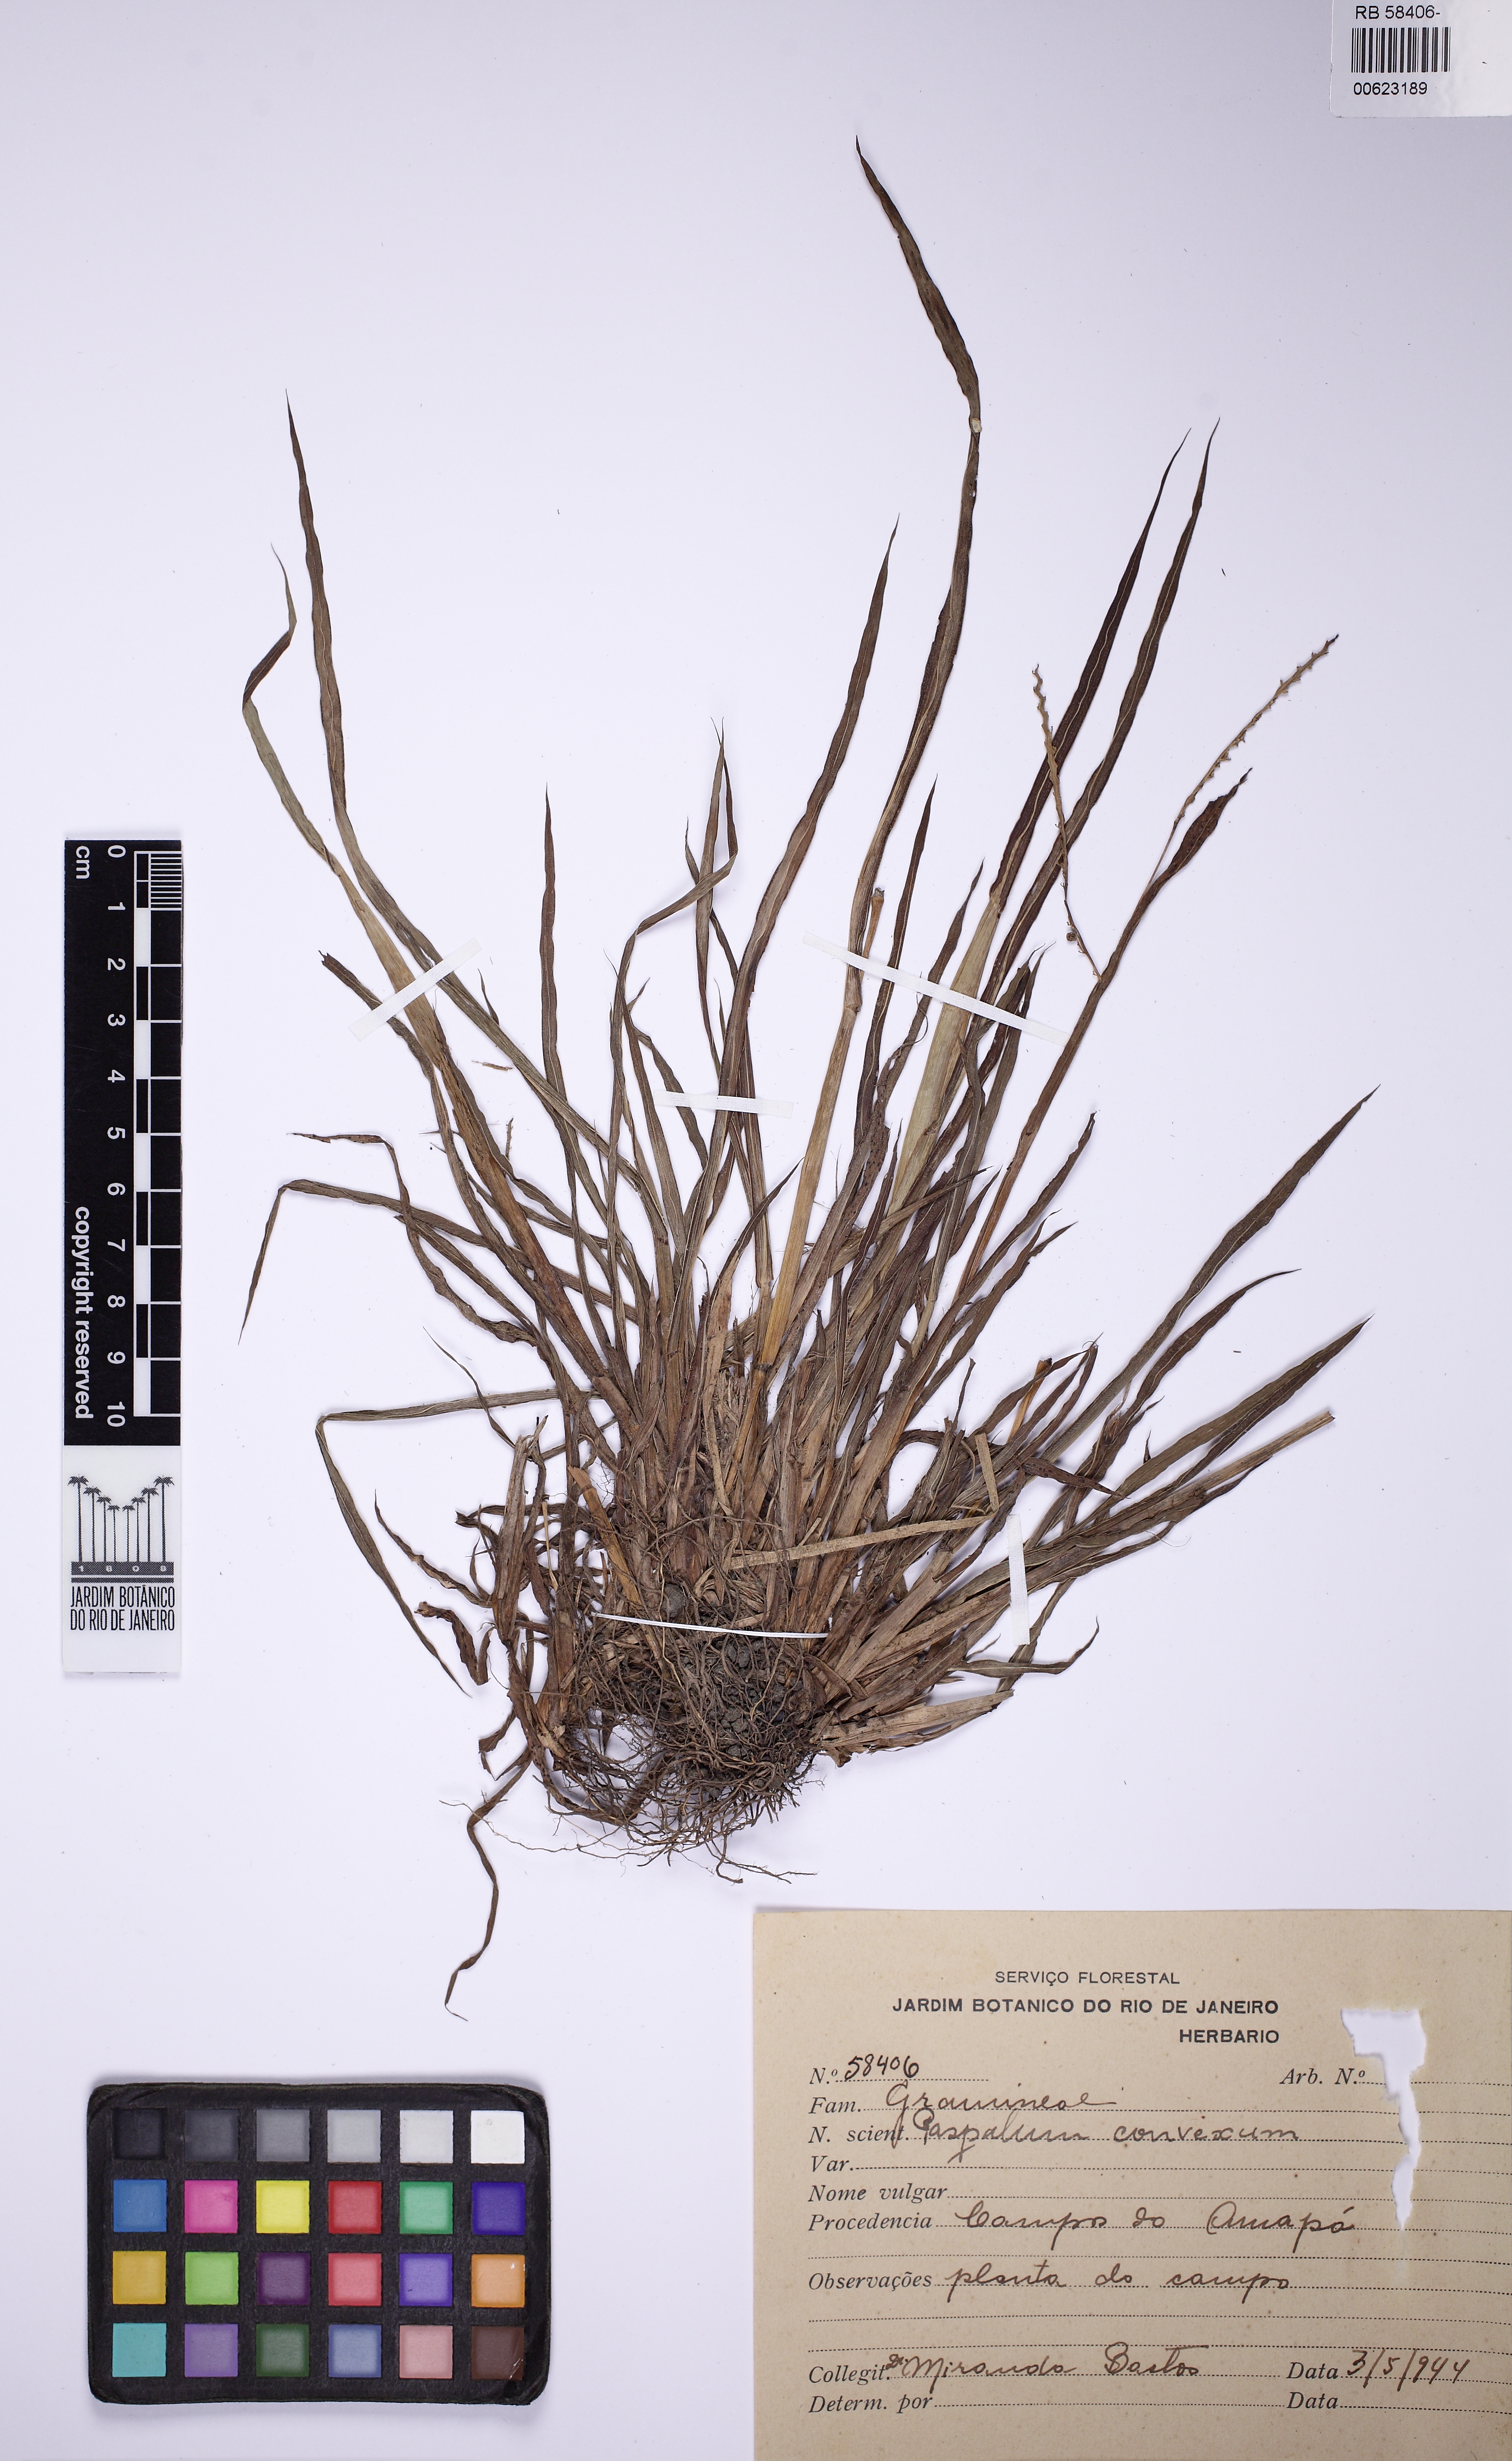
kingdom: Plantae
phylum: Tracheophyta
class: Liliopsida
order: Poales
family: Poaceae
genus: Paspalum
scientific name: Paspalum convexum
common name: Latin american crowngrass
